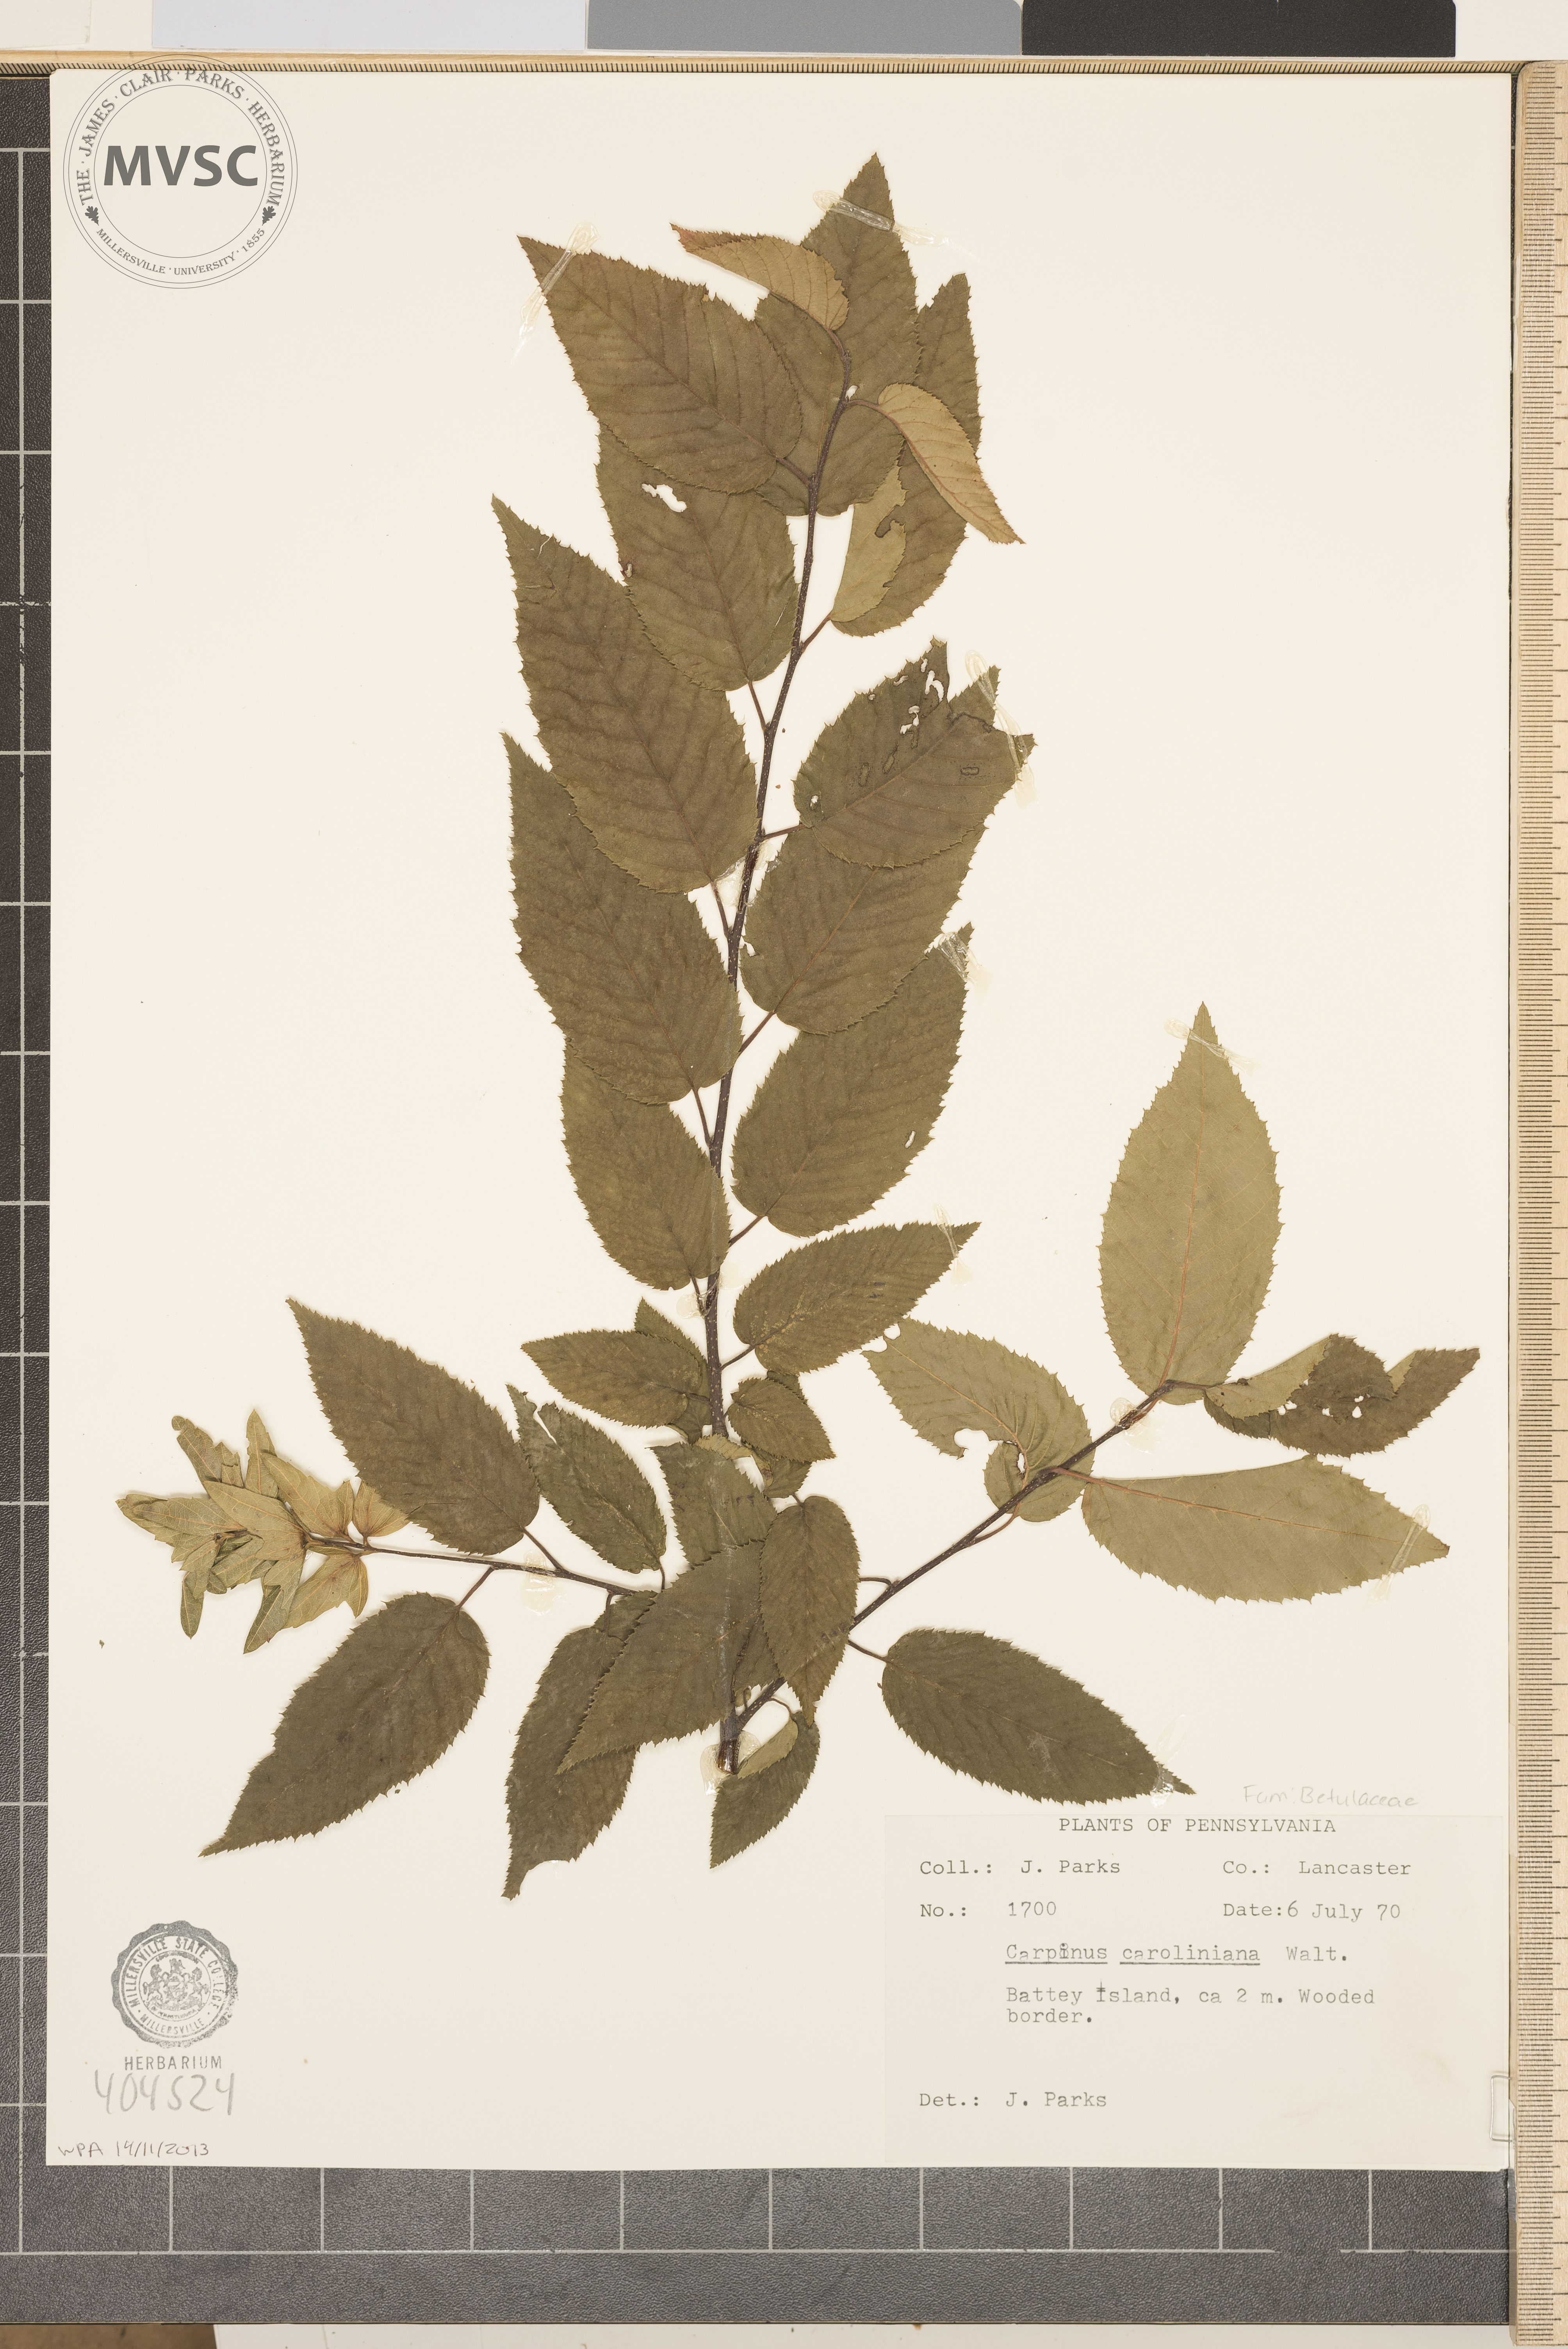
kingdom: Plantae
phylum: Tracheophyta
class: Magnoliopsida
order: Fagales
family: Betulaceae
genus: Carpinus
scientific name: Carpinus caroliniana
